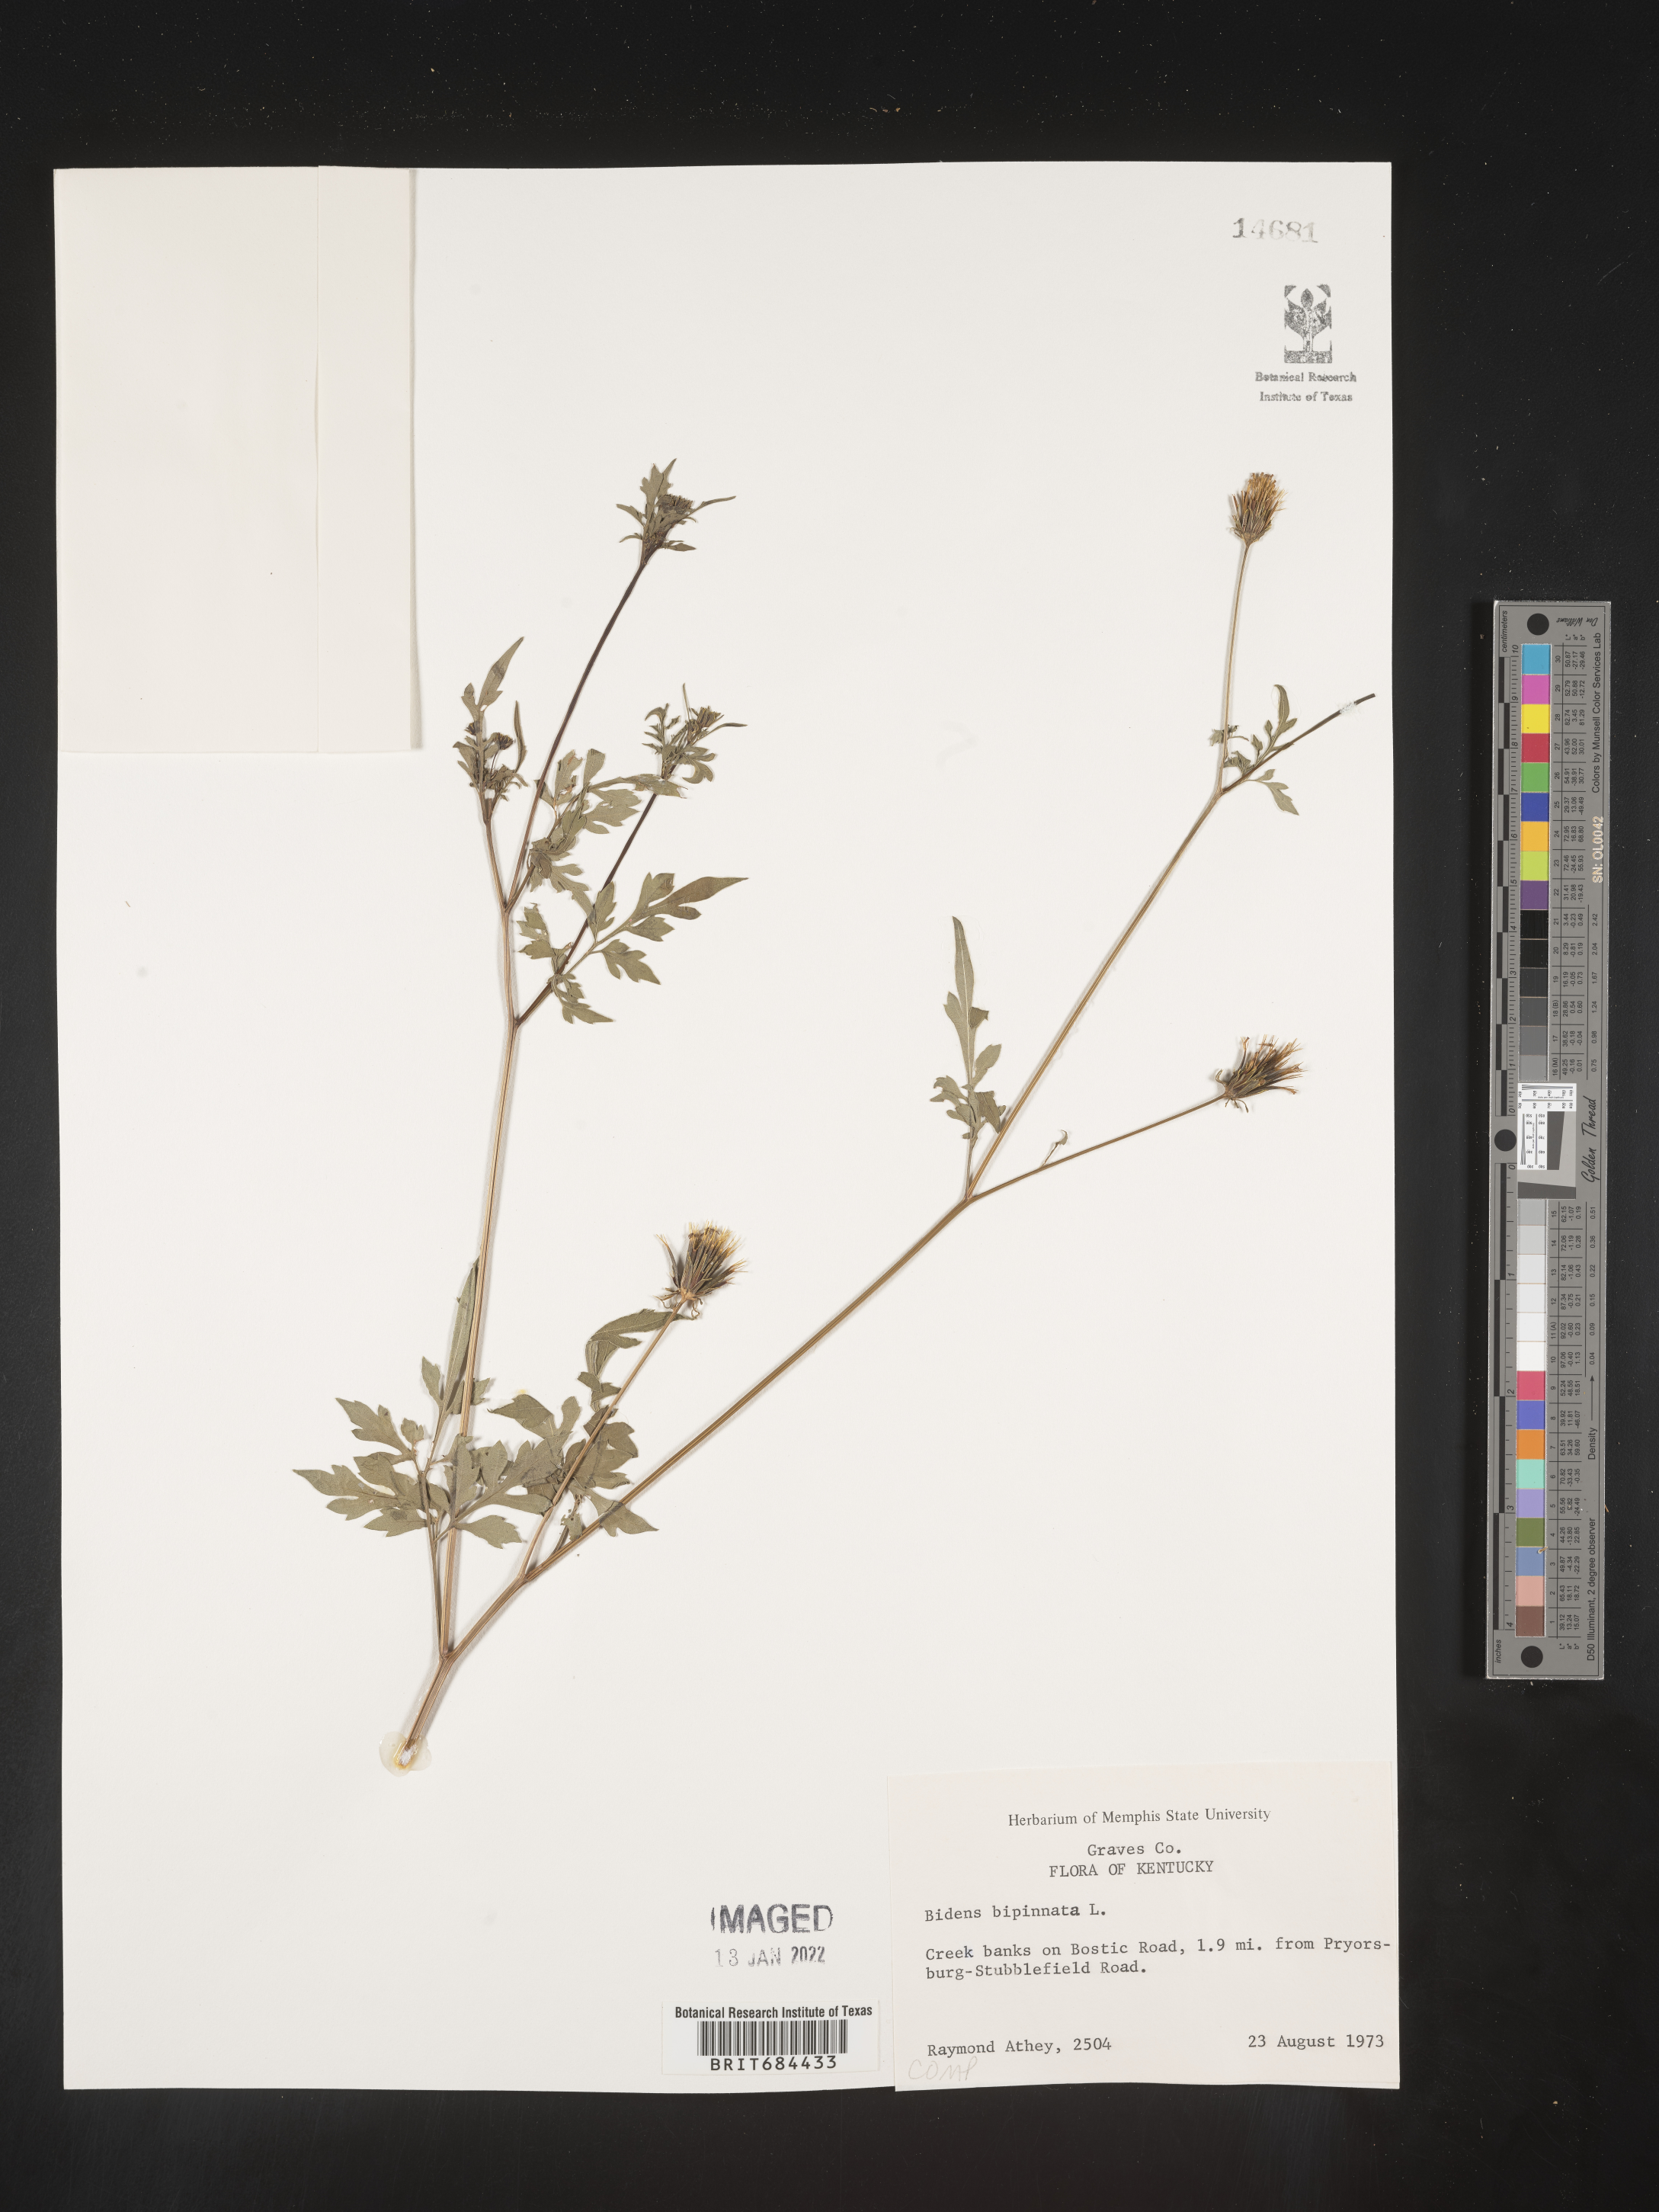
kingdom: Plantae
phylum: Tracheophyta
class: Magnoliopsida
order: Asterales
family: Asteraceae
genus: Bidens
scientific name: Bidens bipinnata
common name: Spanish-needles
